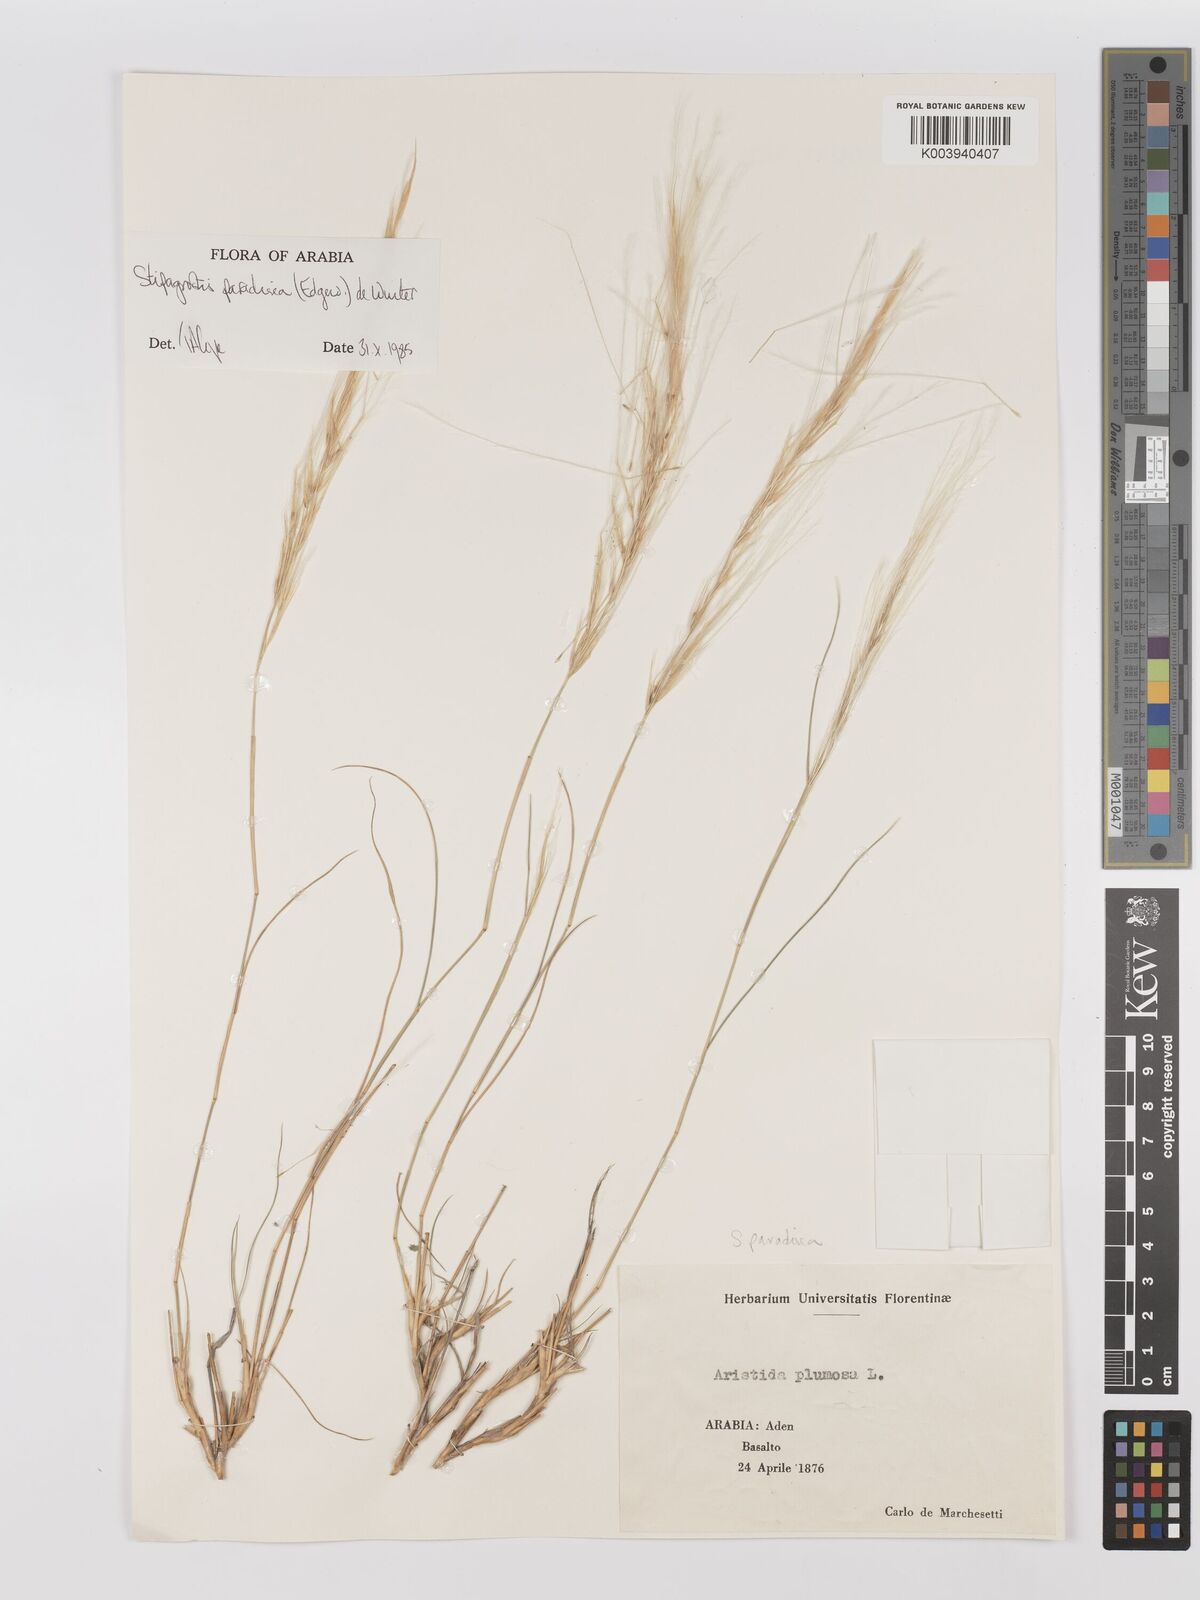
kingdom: Plantae
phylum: Tracheophyta
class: Liliopsida
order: Poales
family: Poaceae
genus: Stipagrostis
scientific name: Stipagrostis paradisea
